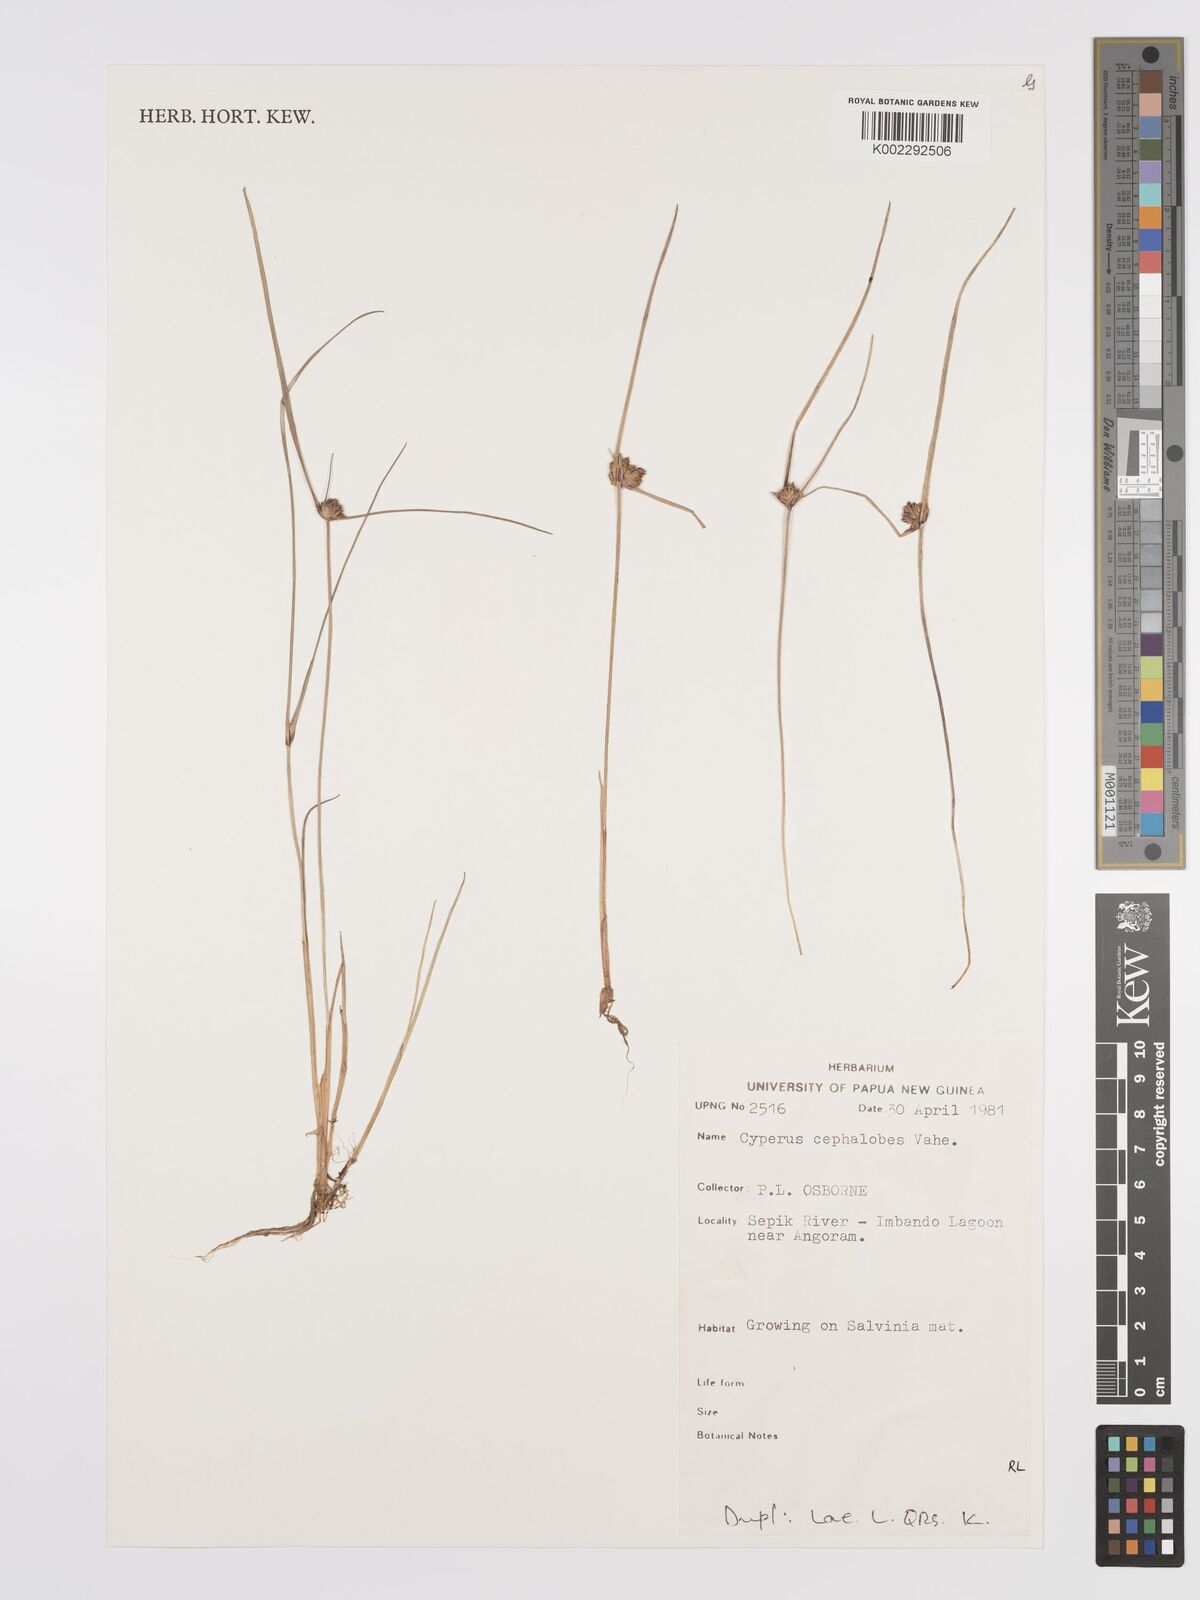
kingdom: Plantae
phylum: Tracheophyta
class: Liliopsida
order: Poales
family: Cyperaceae
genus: Cyperus
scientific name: Cyperus cephalotes
